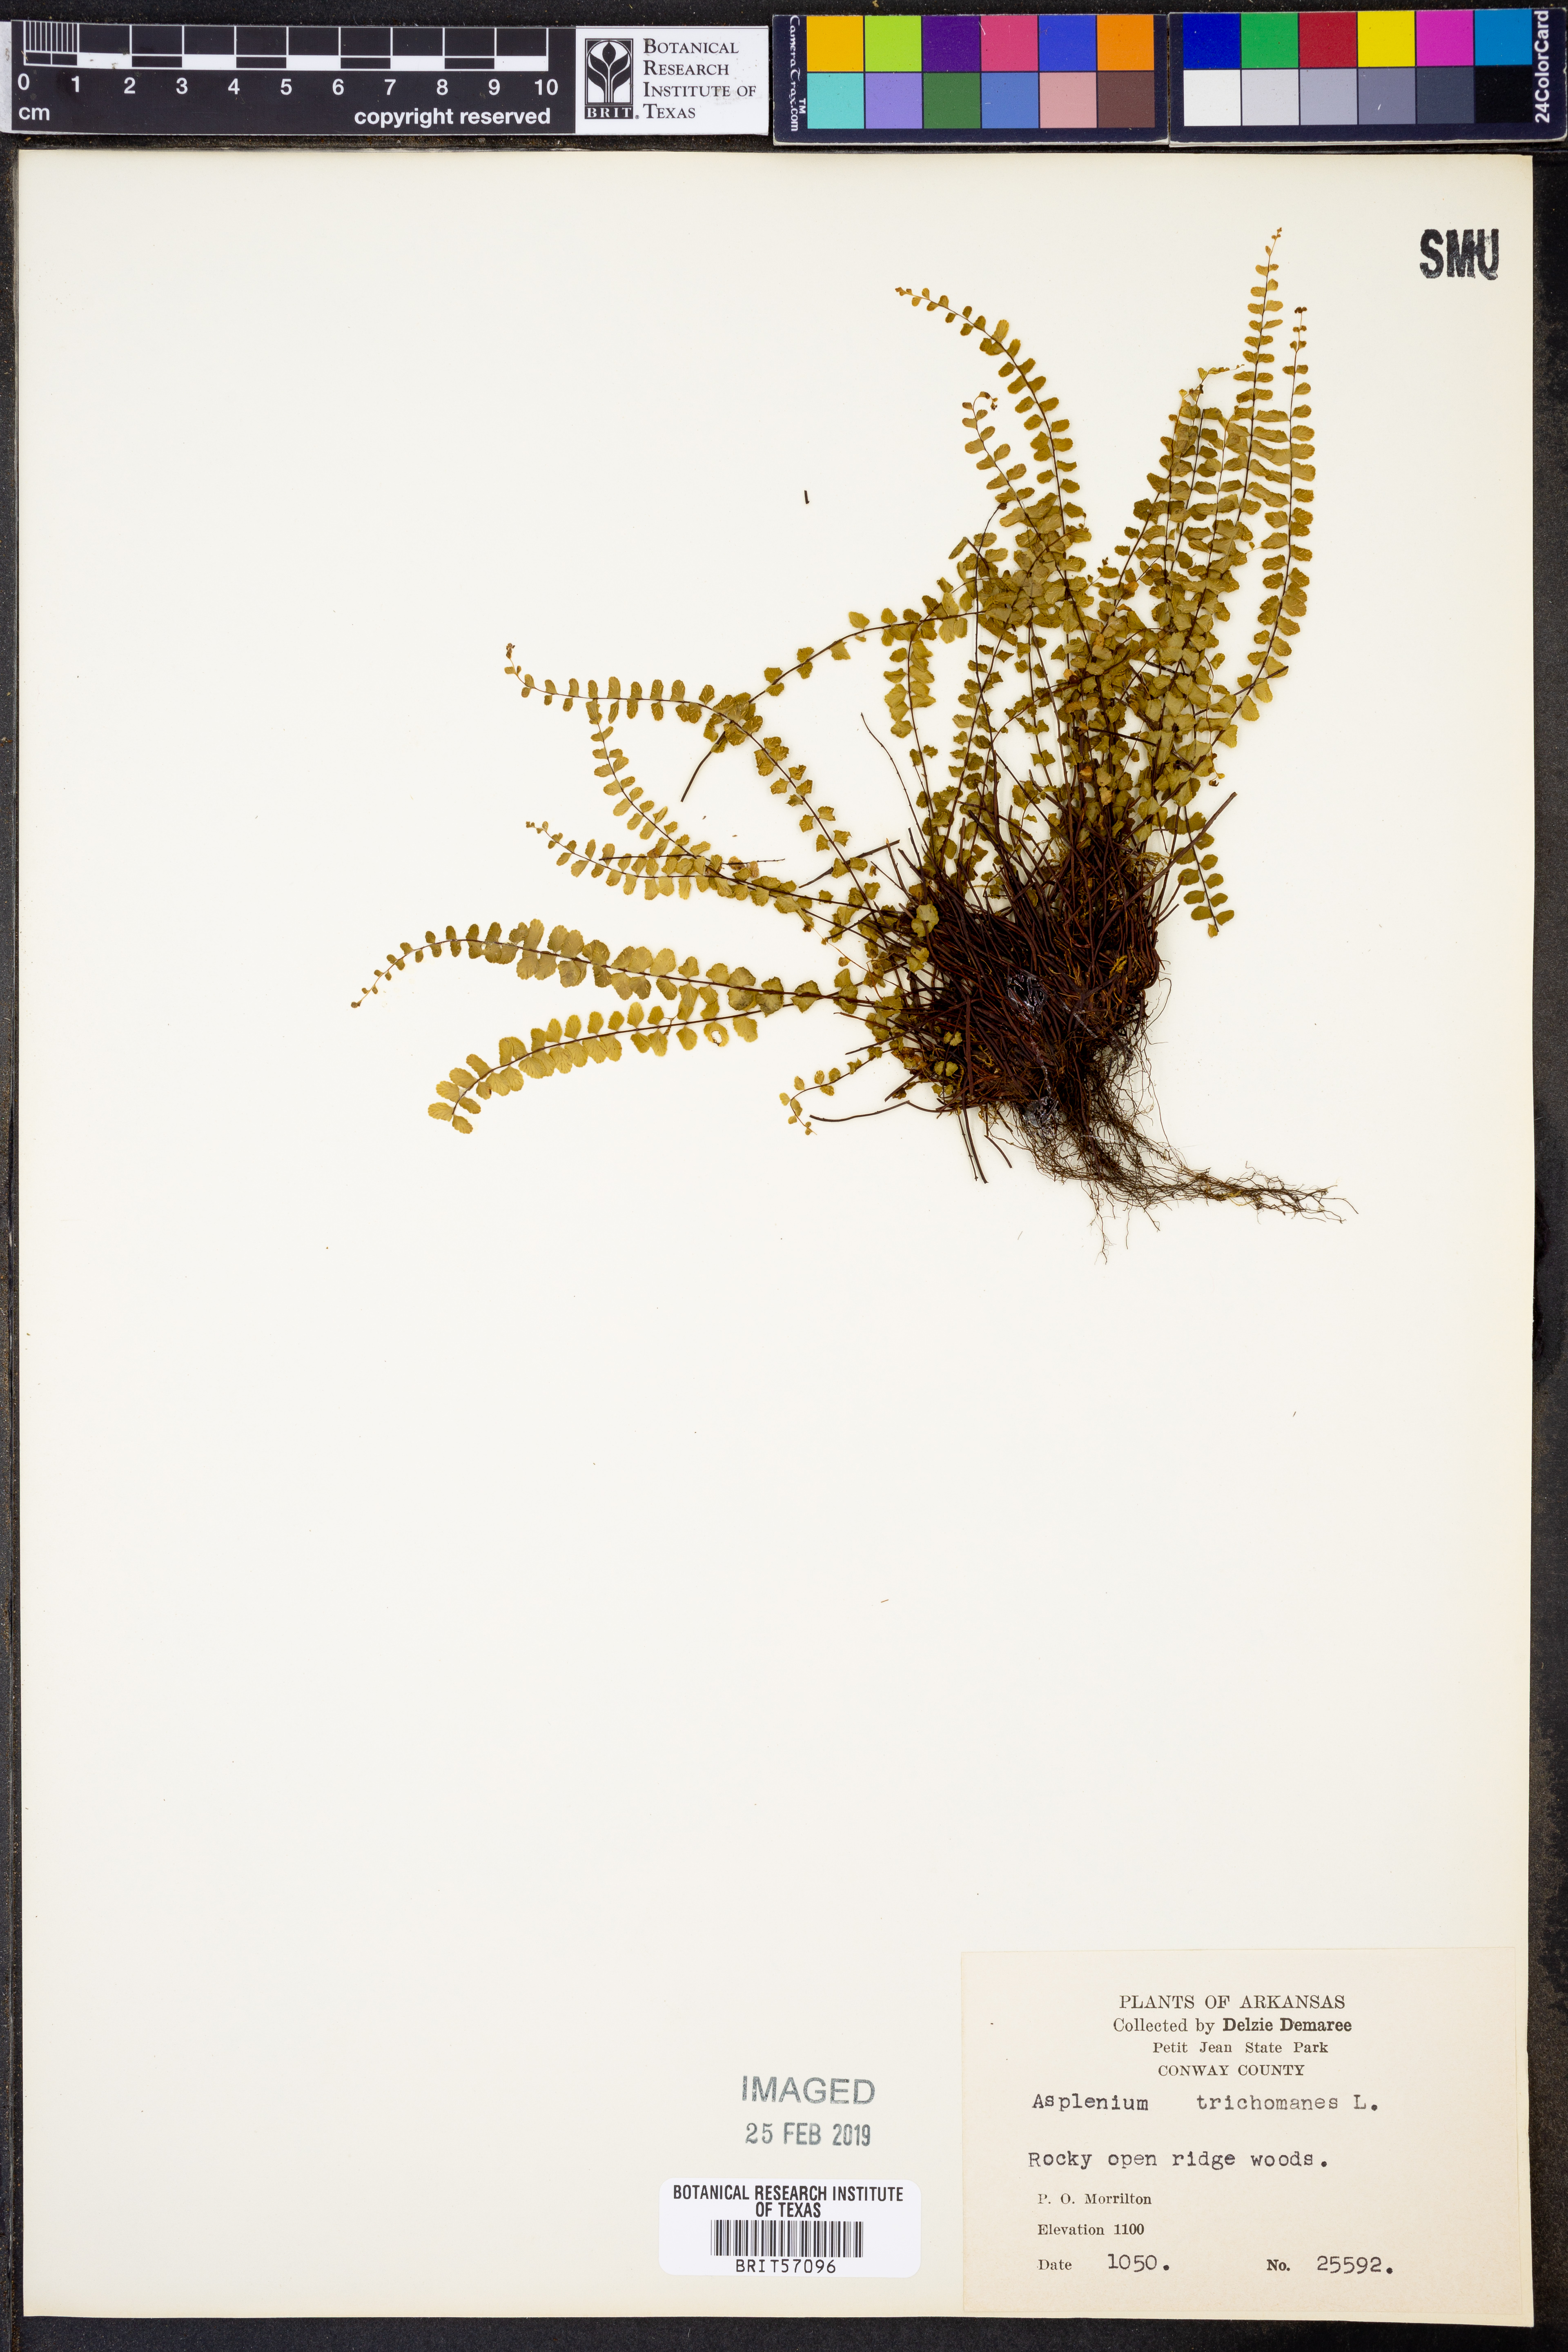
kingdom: Plantae
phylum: Tracheophyta
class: Polypodiopsida
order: Polypodiales
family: Aspleniaceae
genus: Asplenium
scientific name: Asplenium trichomanes
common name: Maidenhair spleenwort
